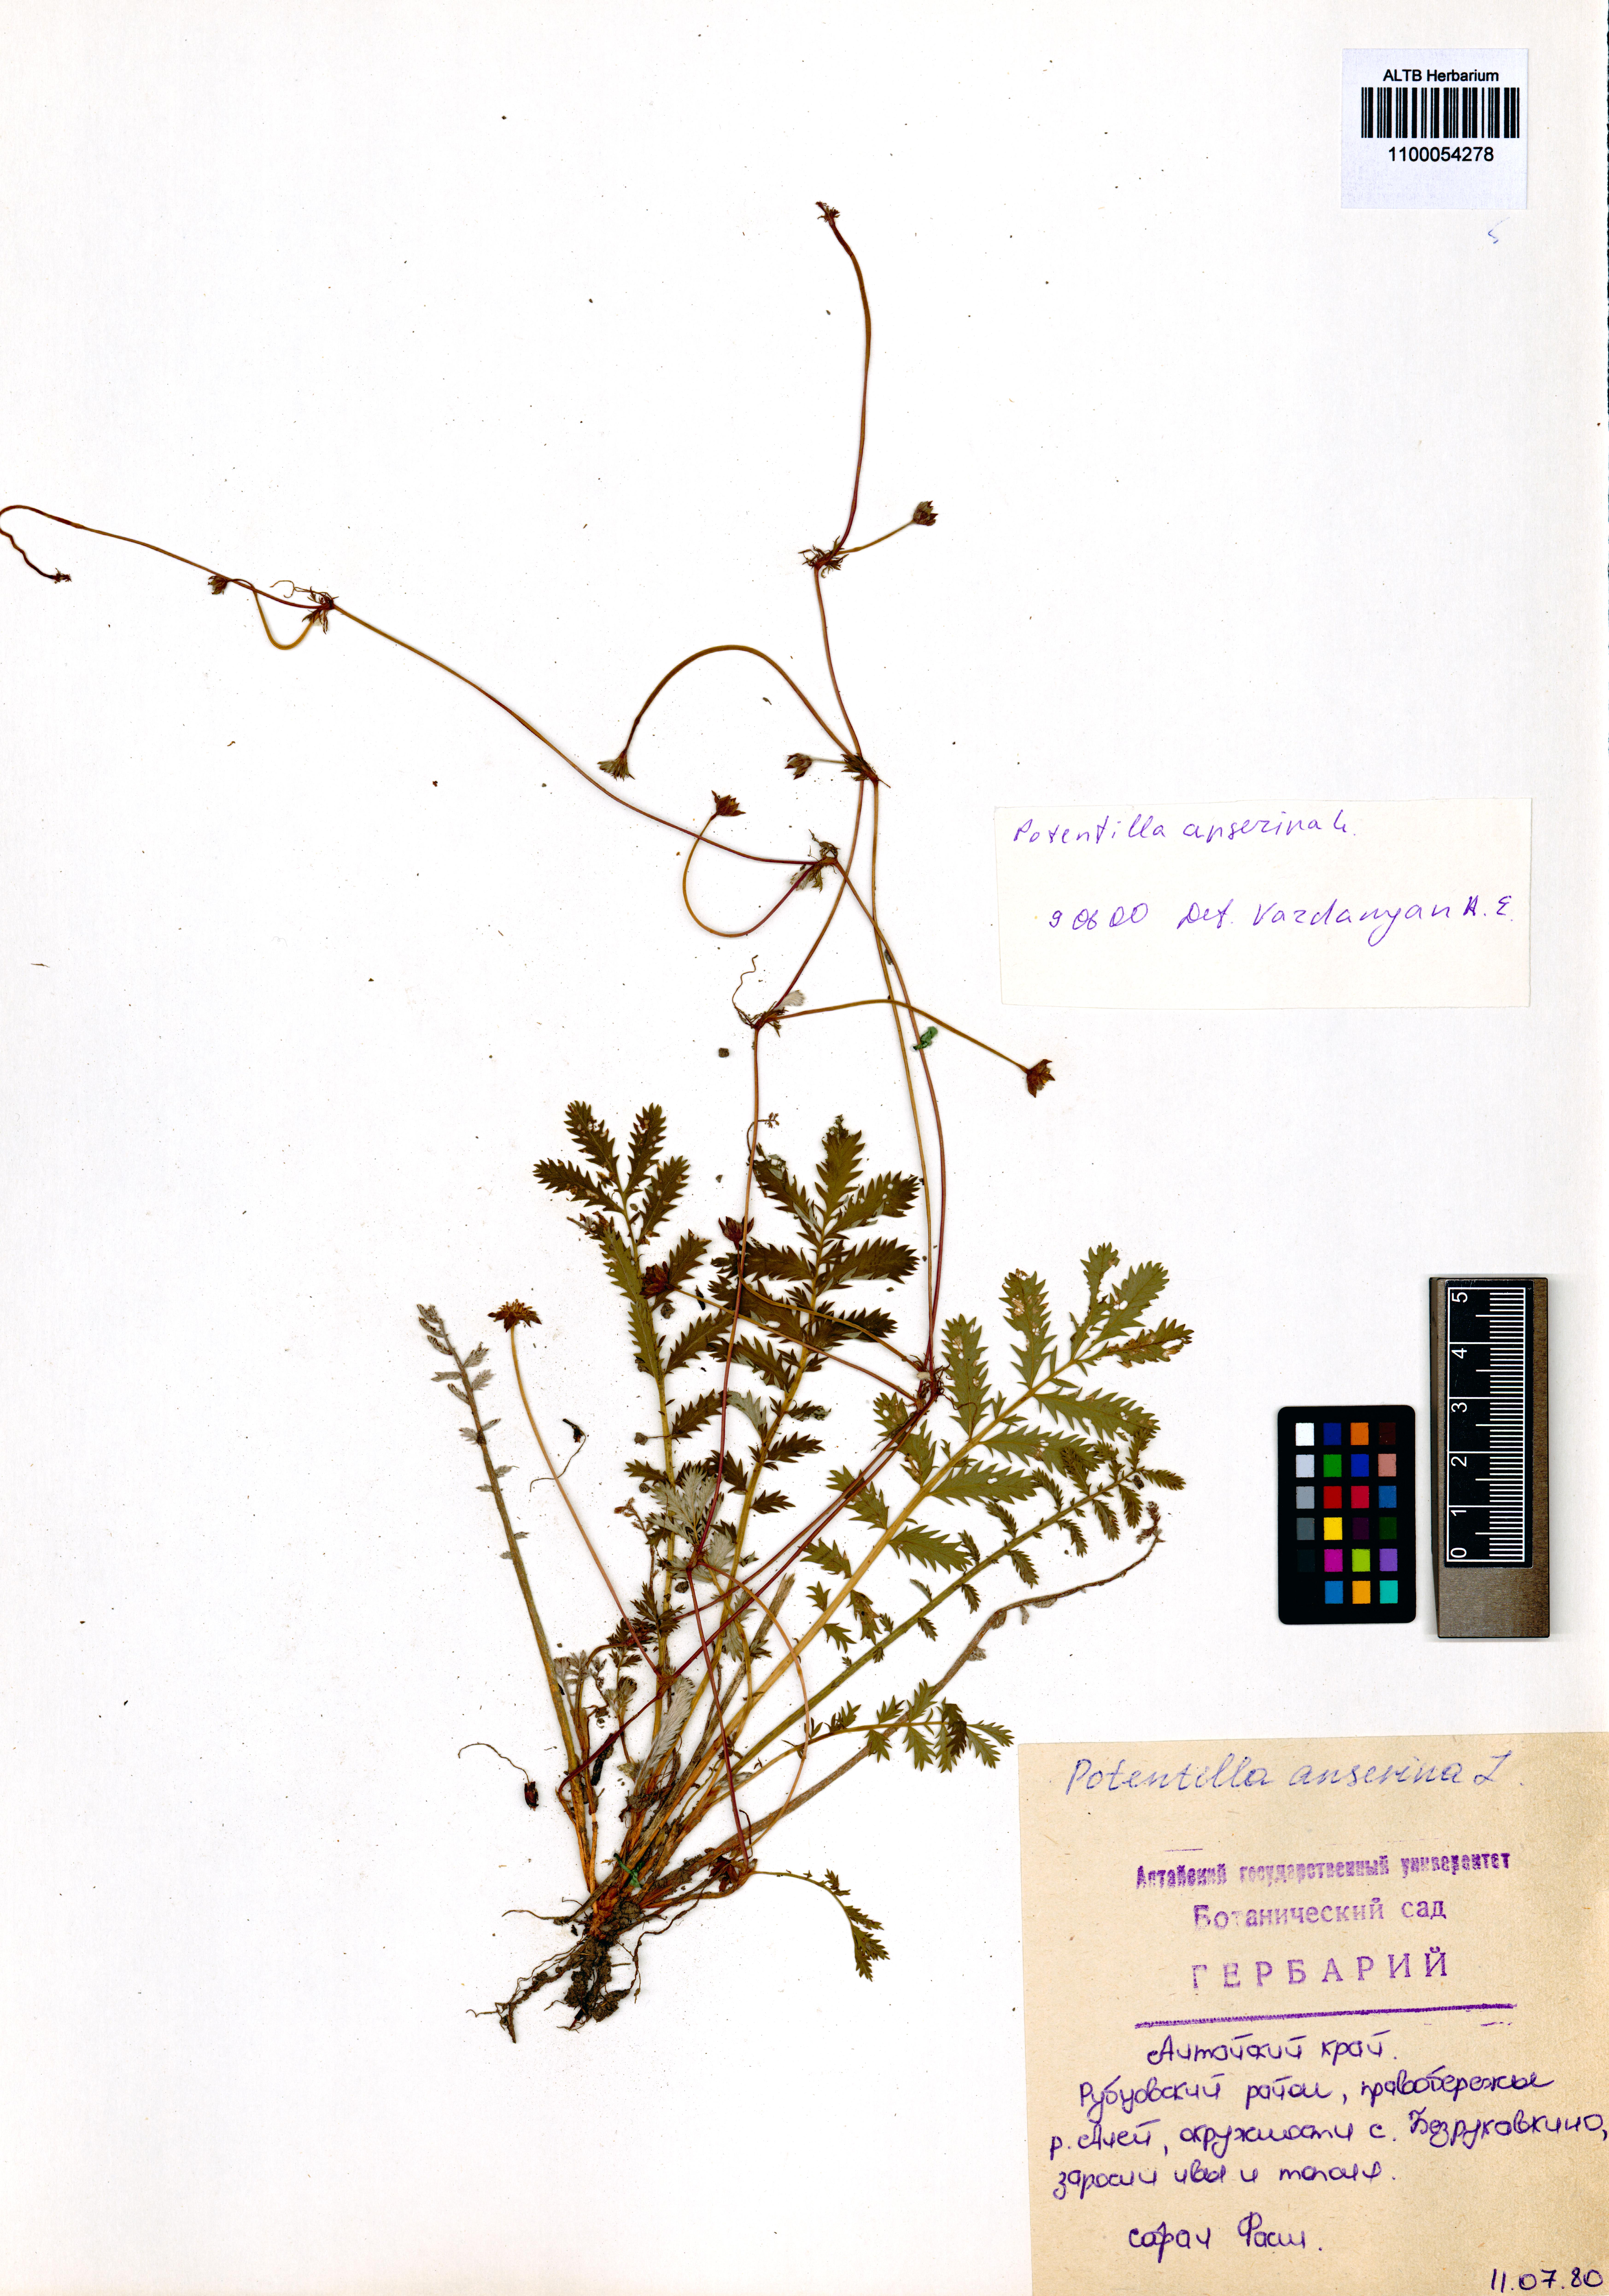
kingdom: Plantae
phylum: Tracheophyta
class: Magnoliopsida
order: Rosales
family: Rosaceae
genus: Argentina
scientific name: Argentina anserina
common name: Common silverweed
